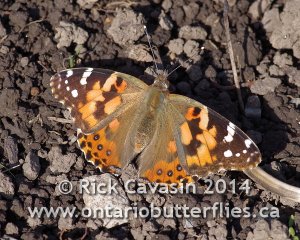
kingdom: Animalia
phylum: Arthropoda
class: Insecta
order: Lepidoptera
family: Nymphalidae
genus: Vanessa
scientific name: Vanessa cardui
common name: Painted Lady
